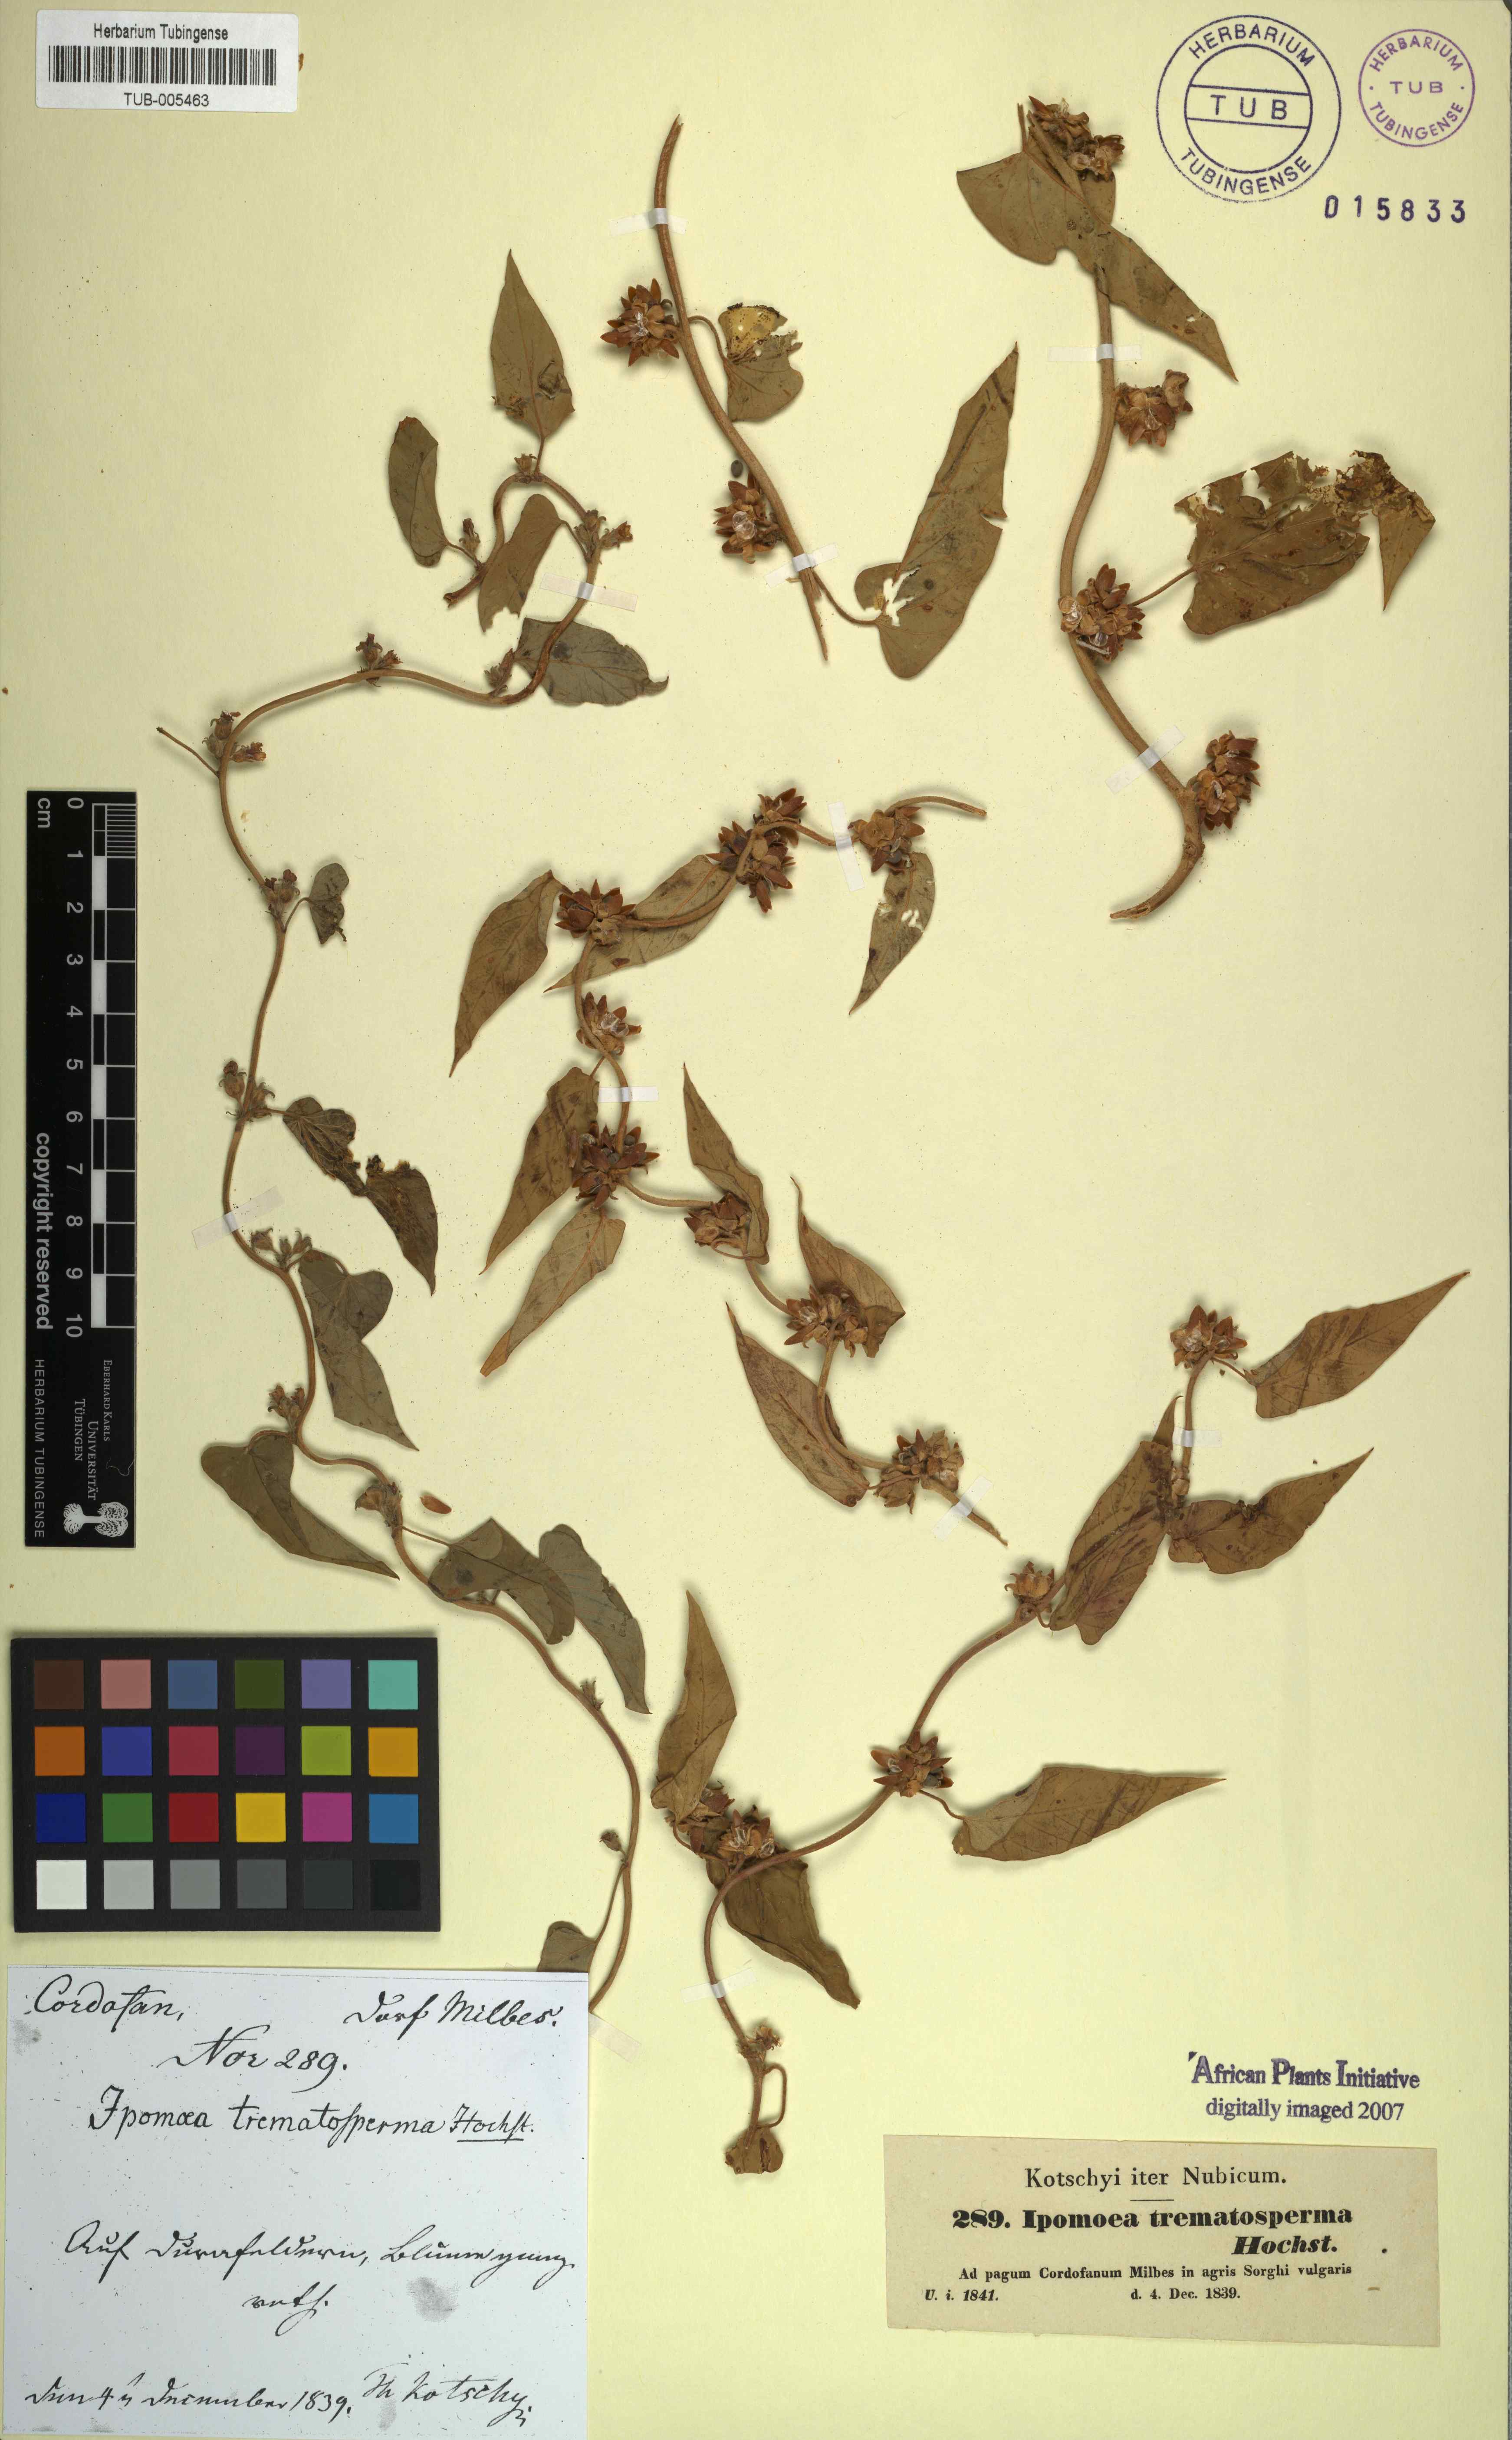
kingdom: Plantae
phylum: Tracheophyta
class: Magnoliopsida
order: Solanales
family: Convolvulaceae
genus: Ipomoea
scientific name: Ipomoea eriocarpa
